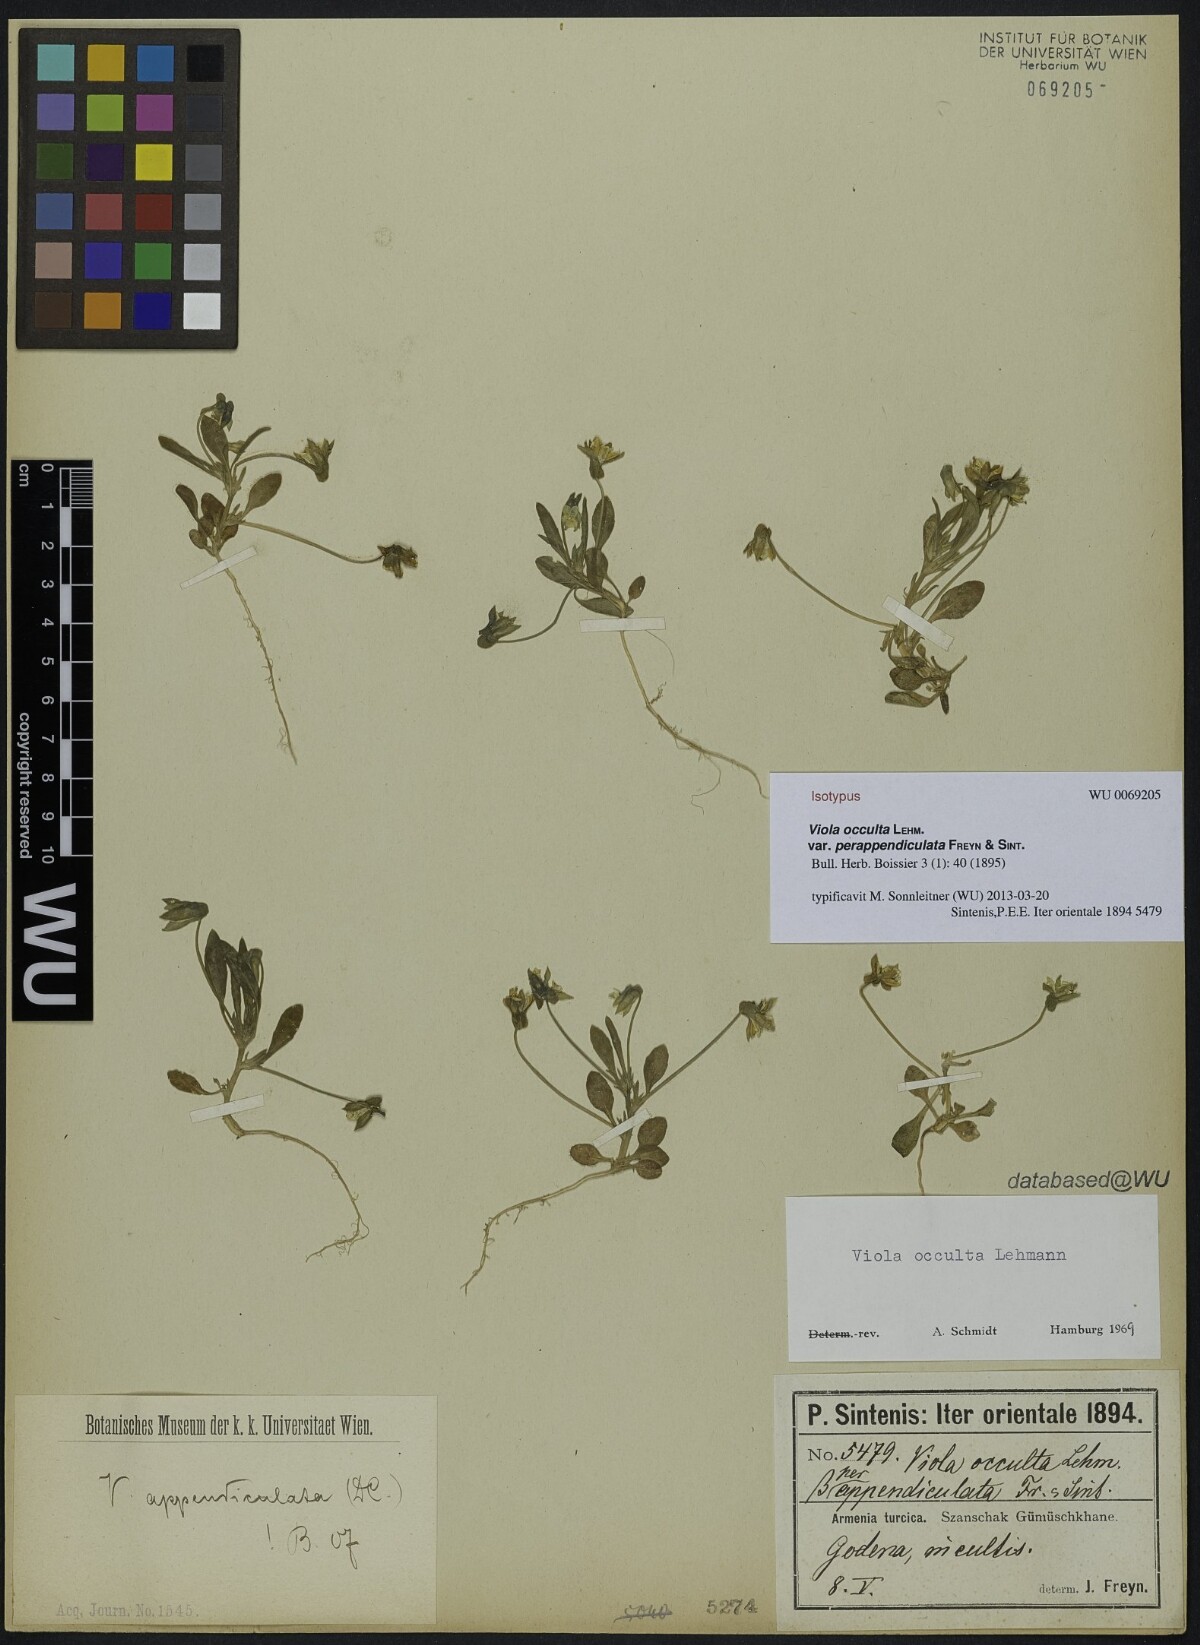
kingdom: Plantae
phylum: Tracheophyta
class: Magnoliopsida
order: Malpighiales
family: Violaceae
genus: Viola
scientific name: Viola occulta
